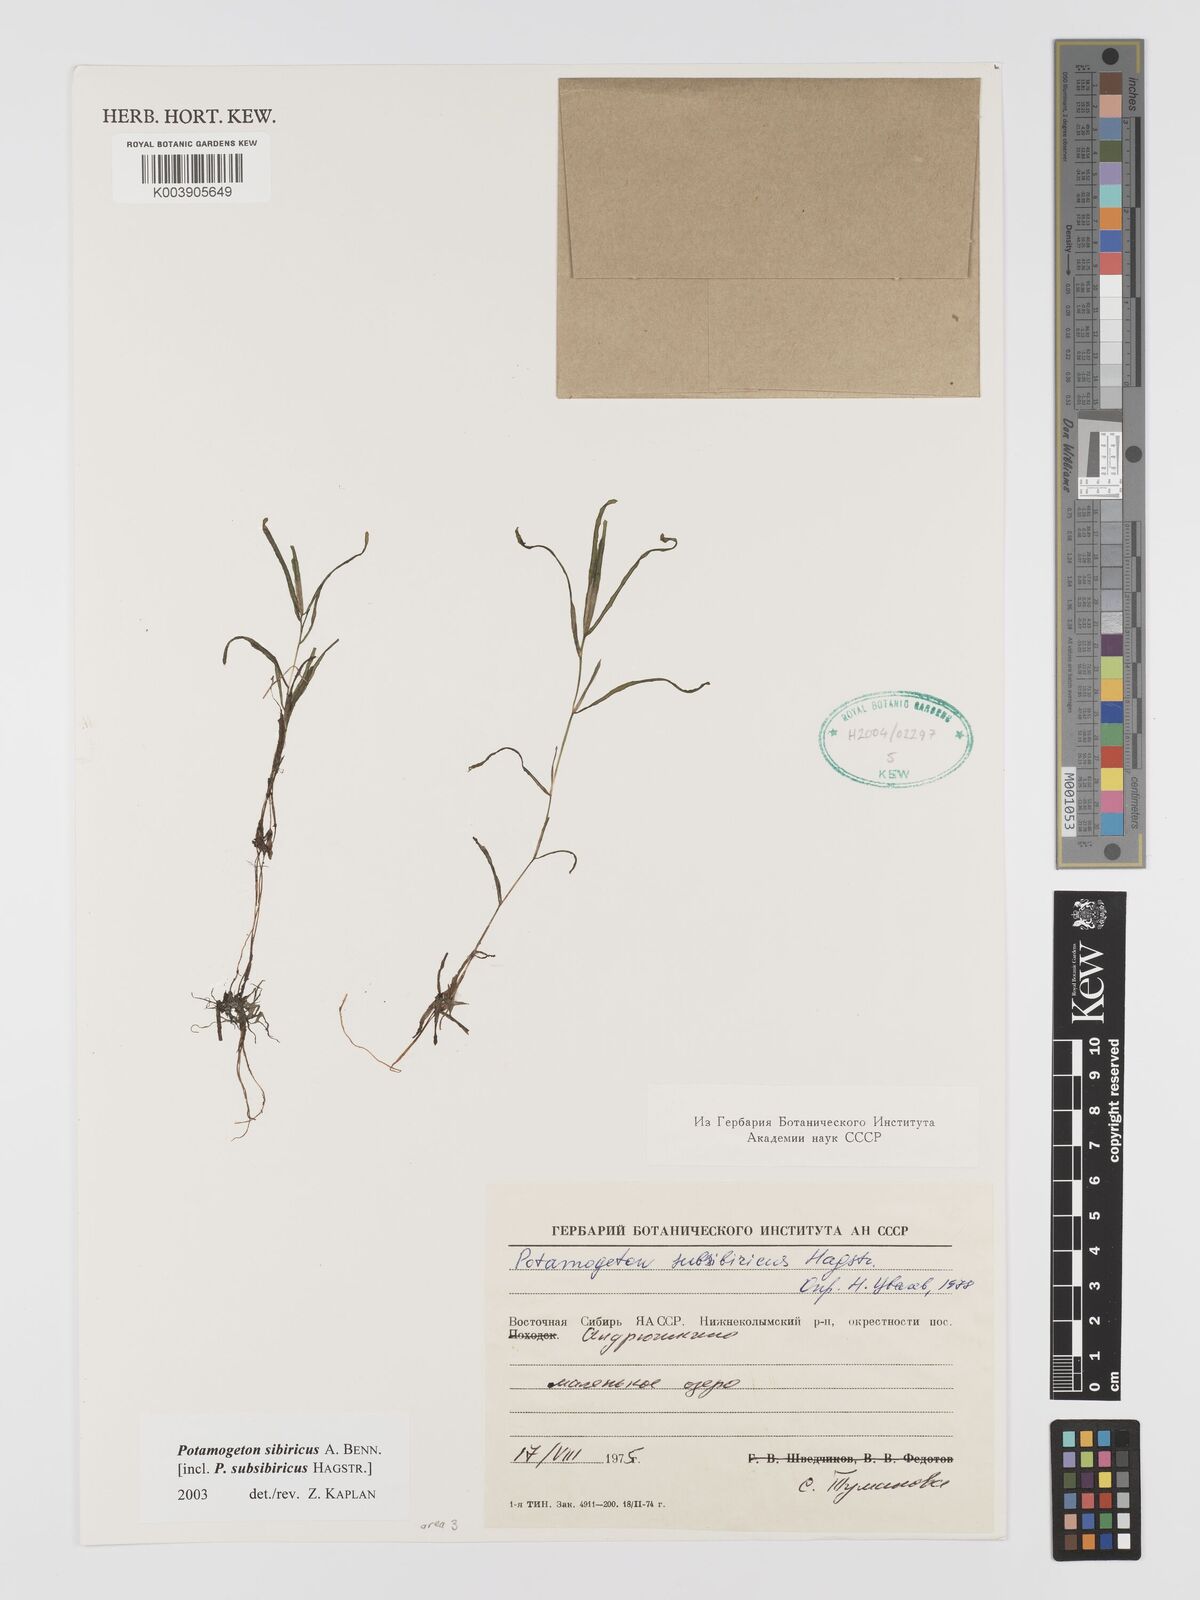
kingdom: Plantae
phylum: Tracheophyta
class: Liliopsida
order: Alismatales
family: Potamogetonaceae
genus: Potamogeton
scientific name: Potamogeton sibiricus
